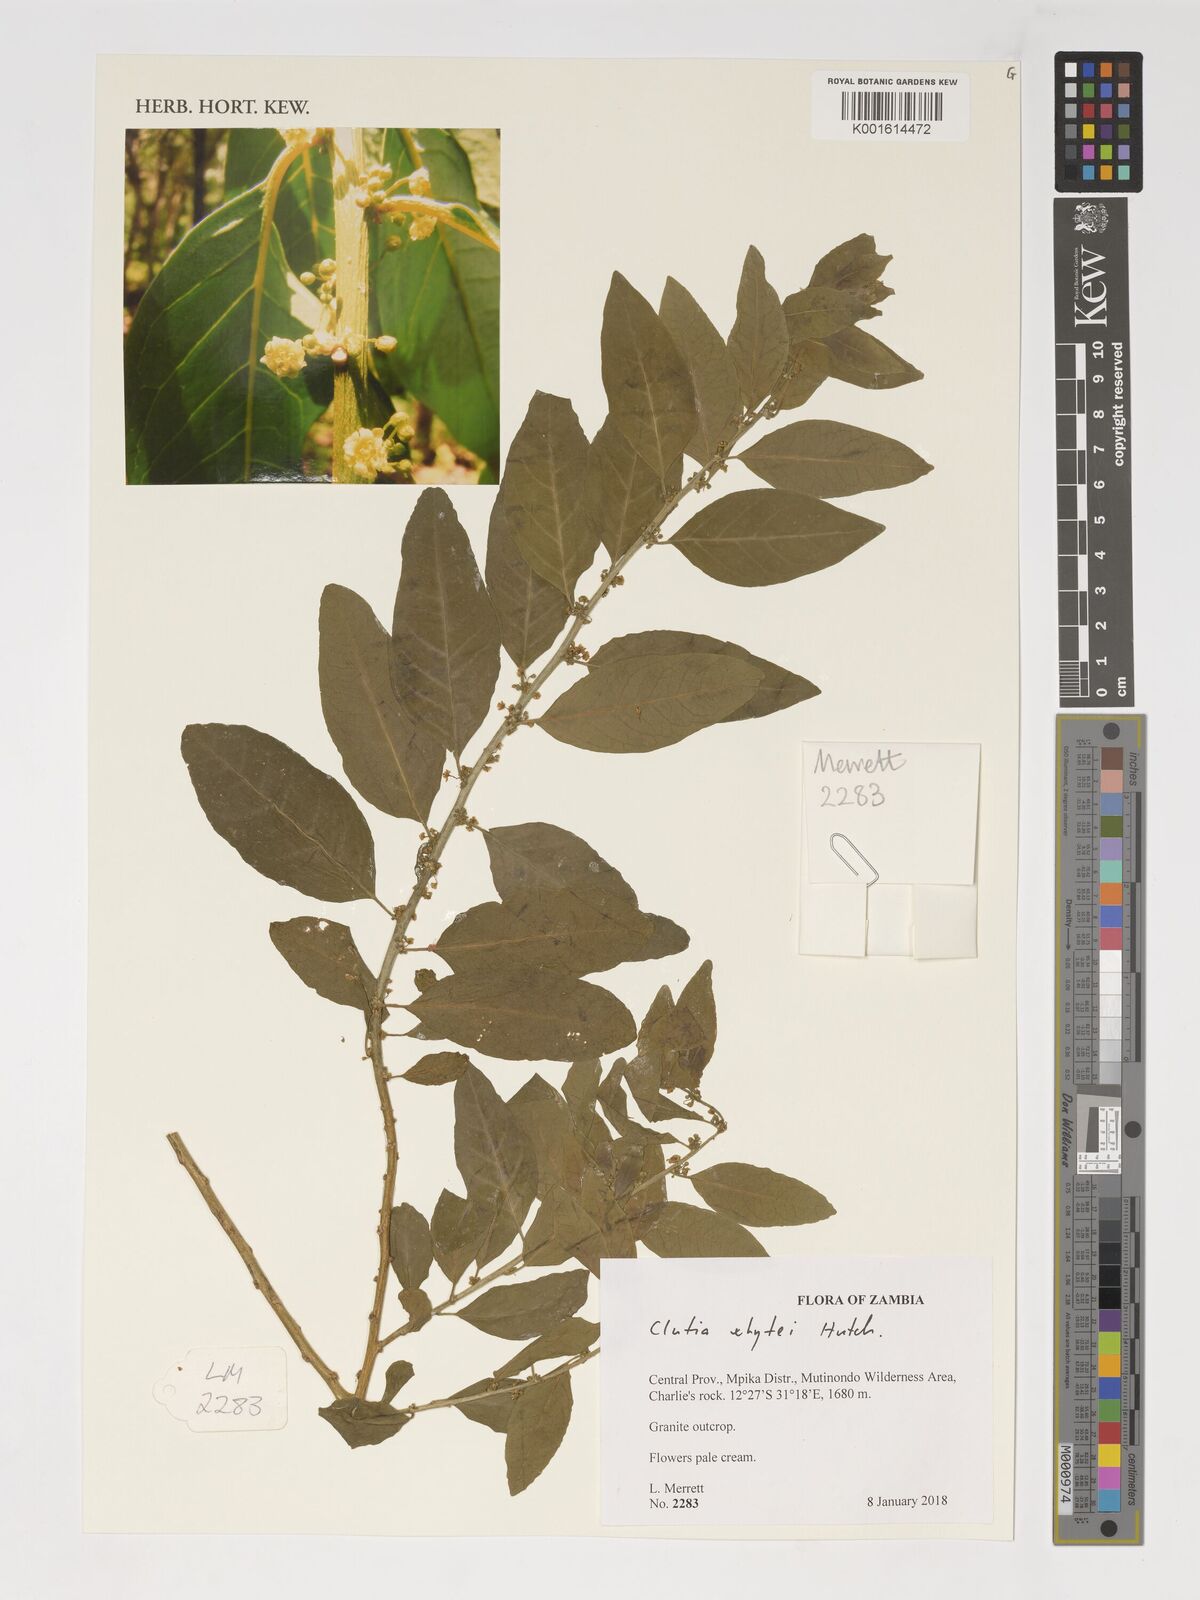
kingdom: Plantae
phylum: Tracheophyta
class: Magnoliopsida
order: Malpighiales
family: Peraceae
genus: Clutia
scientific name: Clutia whytei
